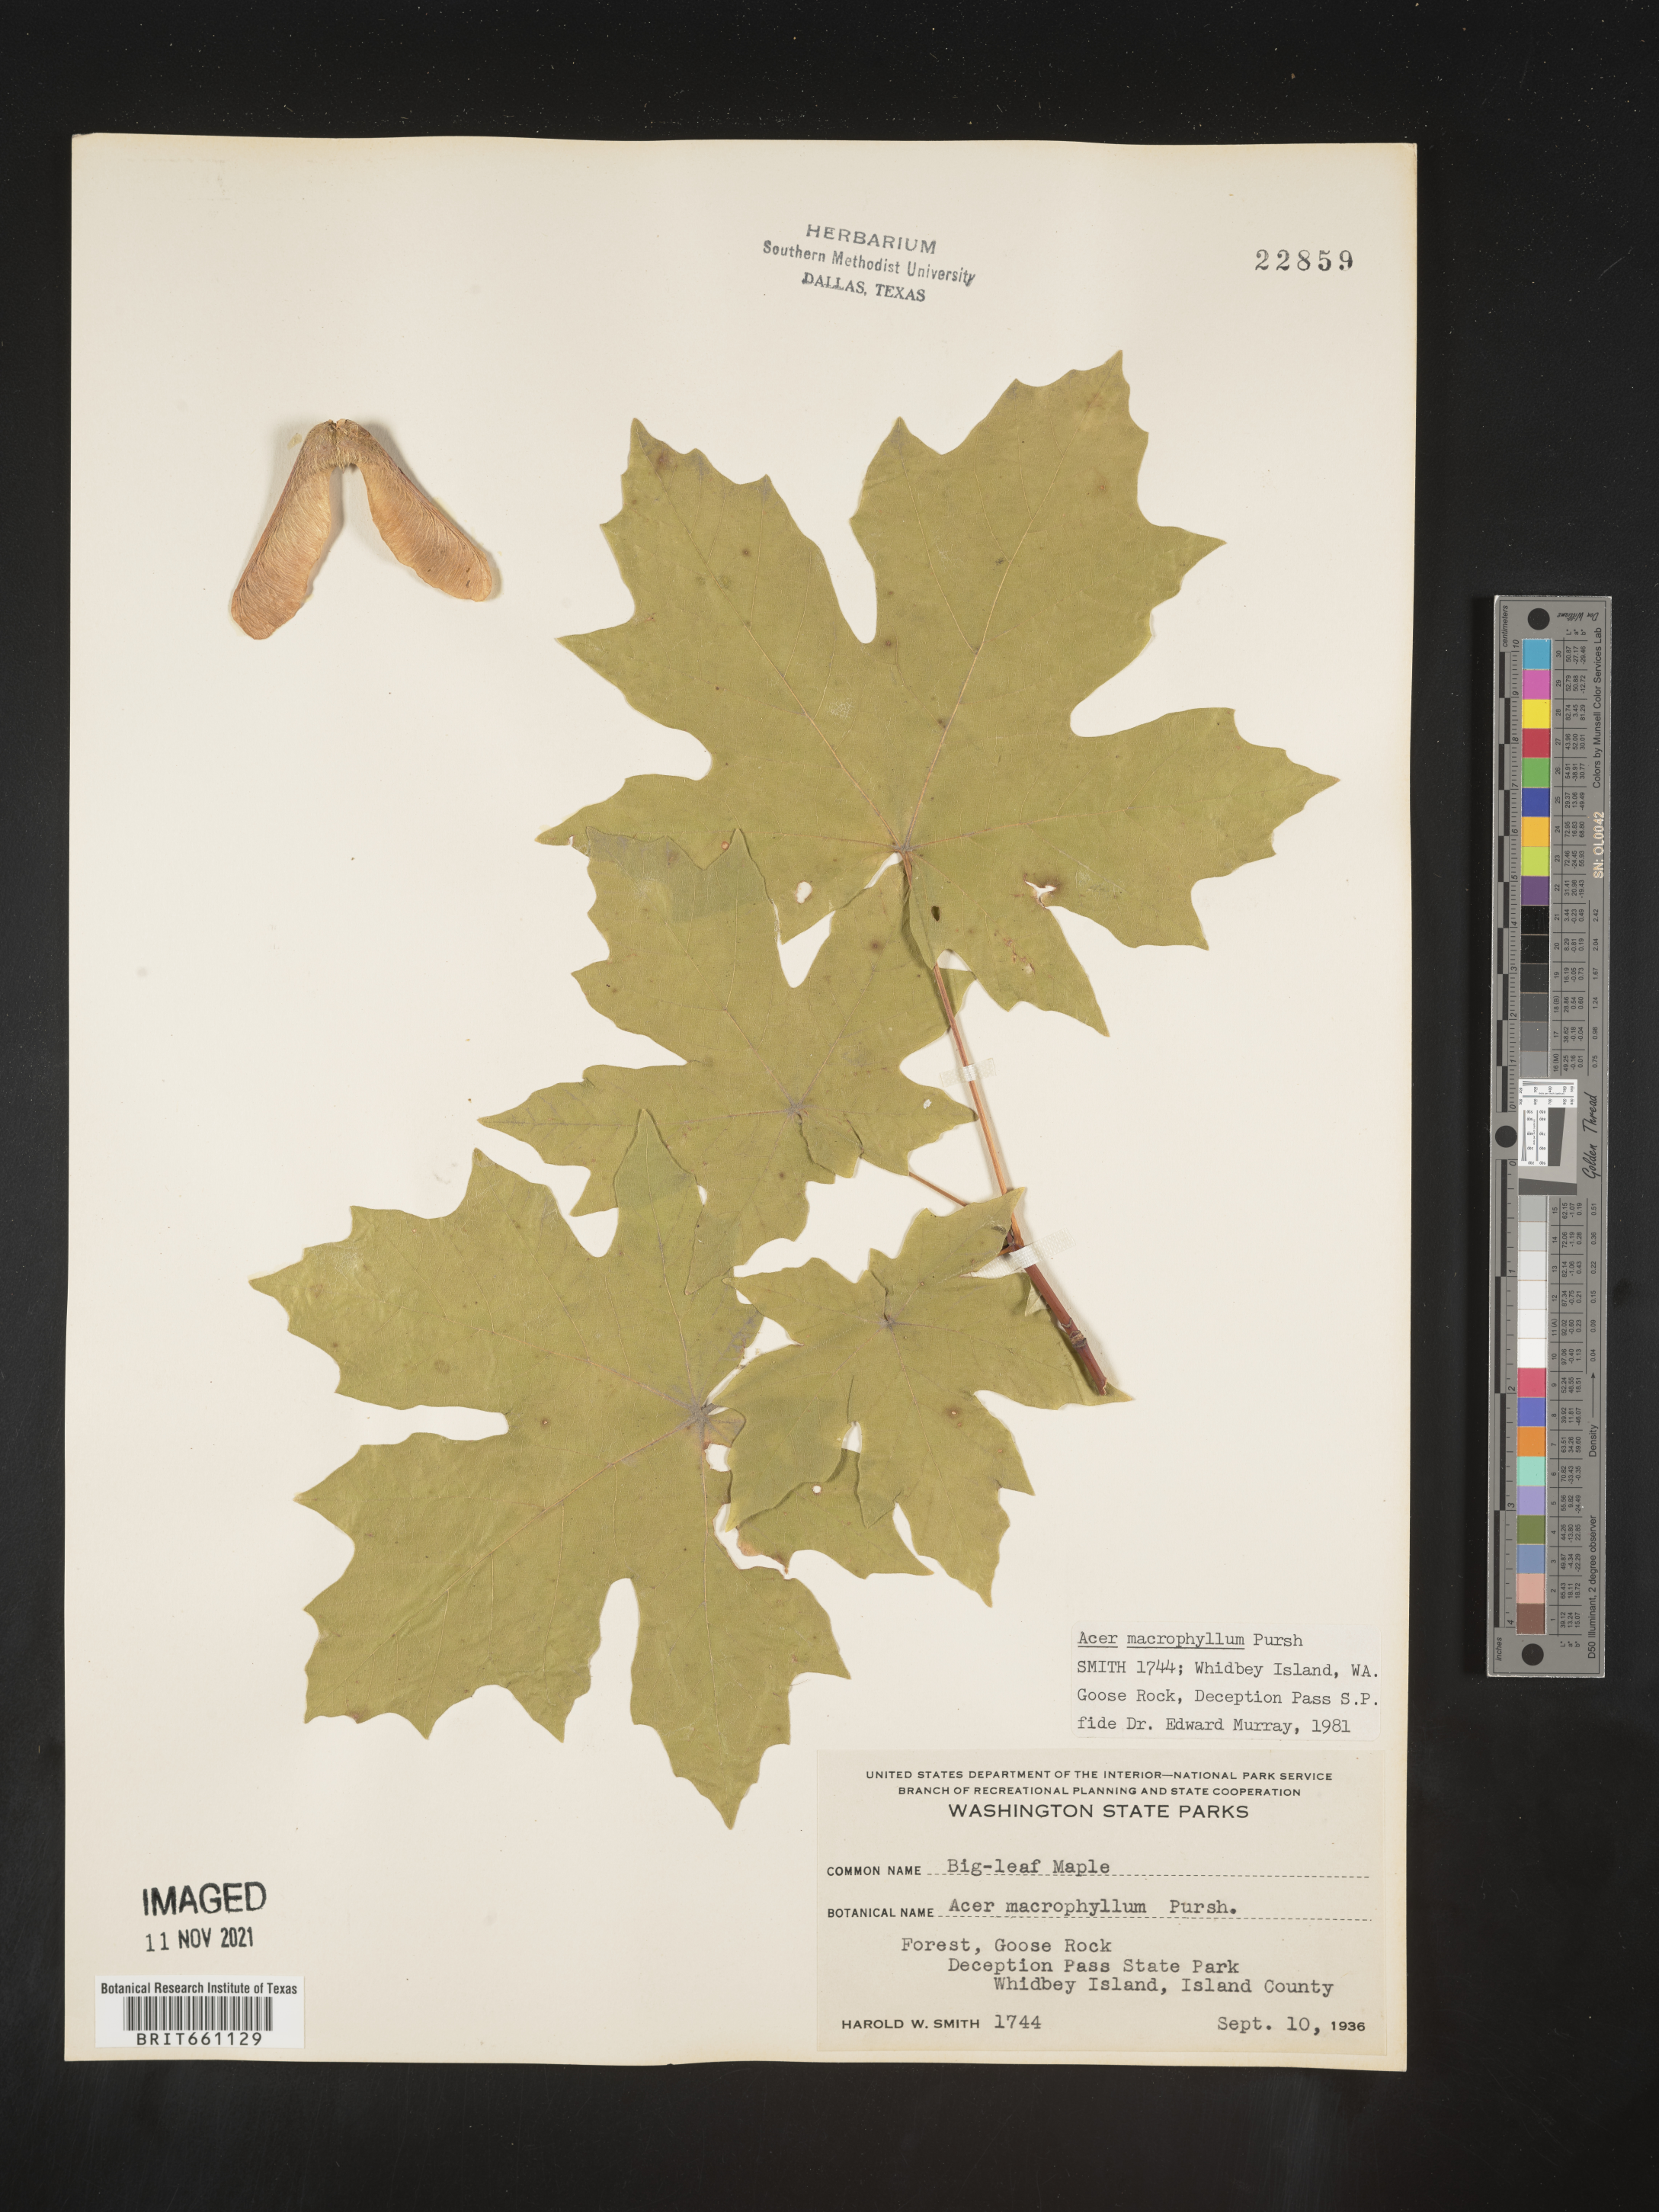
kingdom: Plantae
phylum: Tracheophyta
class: Magnoliopsida
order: Sapindales
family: Sapindaceae
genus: Acer
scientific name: Acer macrophyllum
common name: Oregon maple
